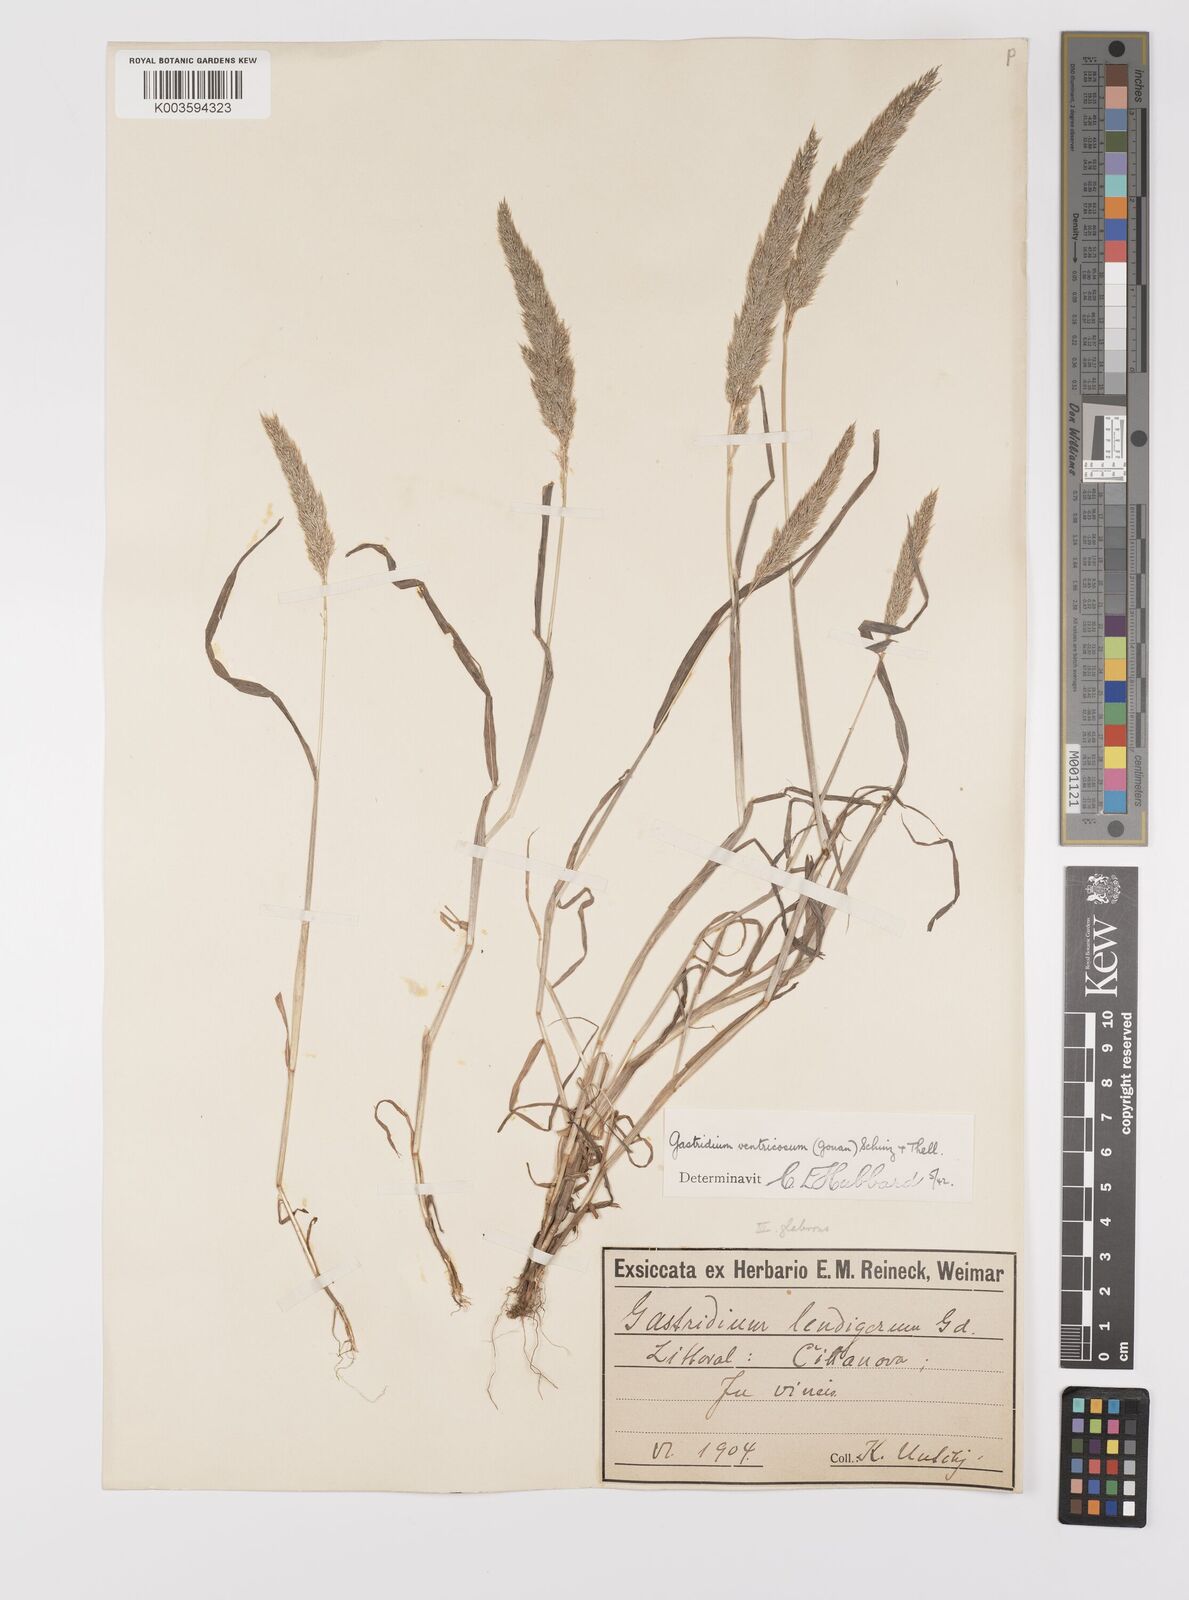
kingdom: Plantae
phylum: Tracheophyta
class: Liliopsida
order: Poales
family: Poaceae
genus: Gastridium
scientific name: Gastridium ventricosum
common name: Nit-grass
